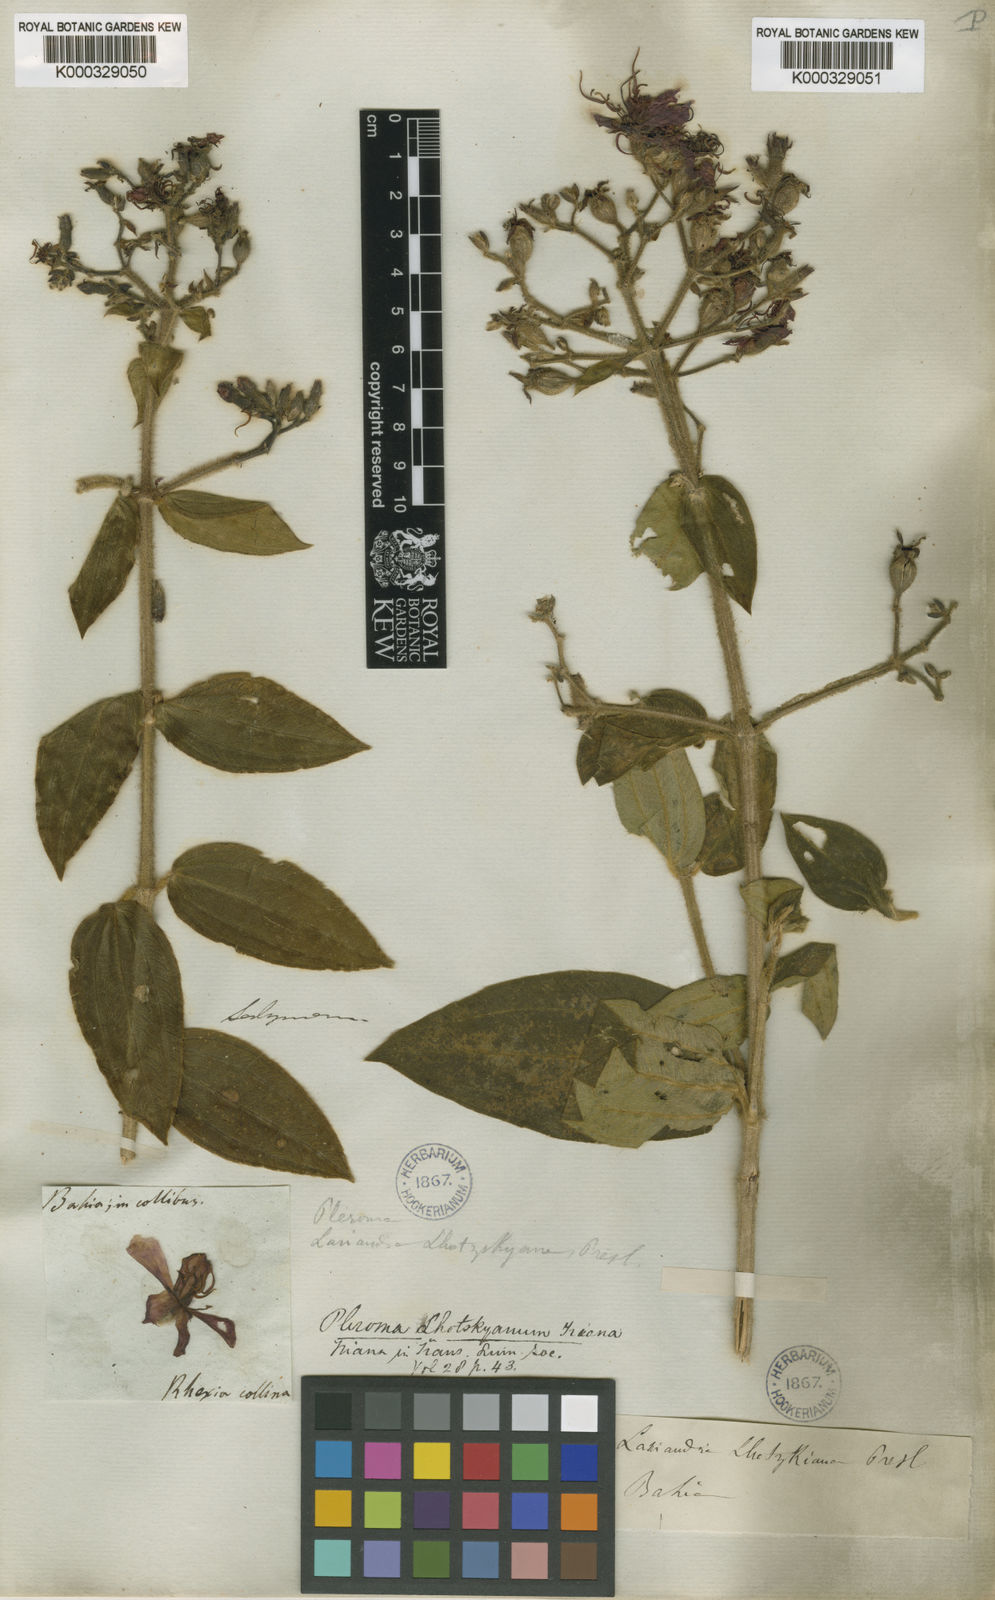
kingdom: Plantae
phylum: Tracheophyta
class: Magnoliopsida
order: Myrtales
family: Melastomataceae
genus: Chaetogastra
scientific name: Chaetogastra lhotskyana
